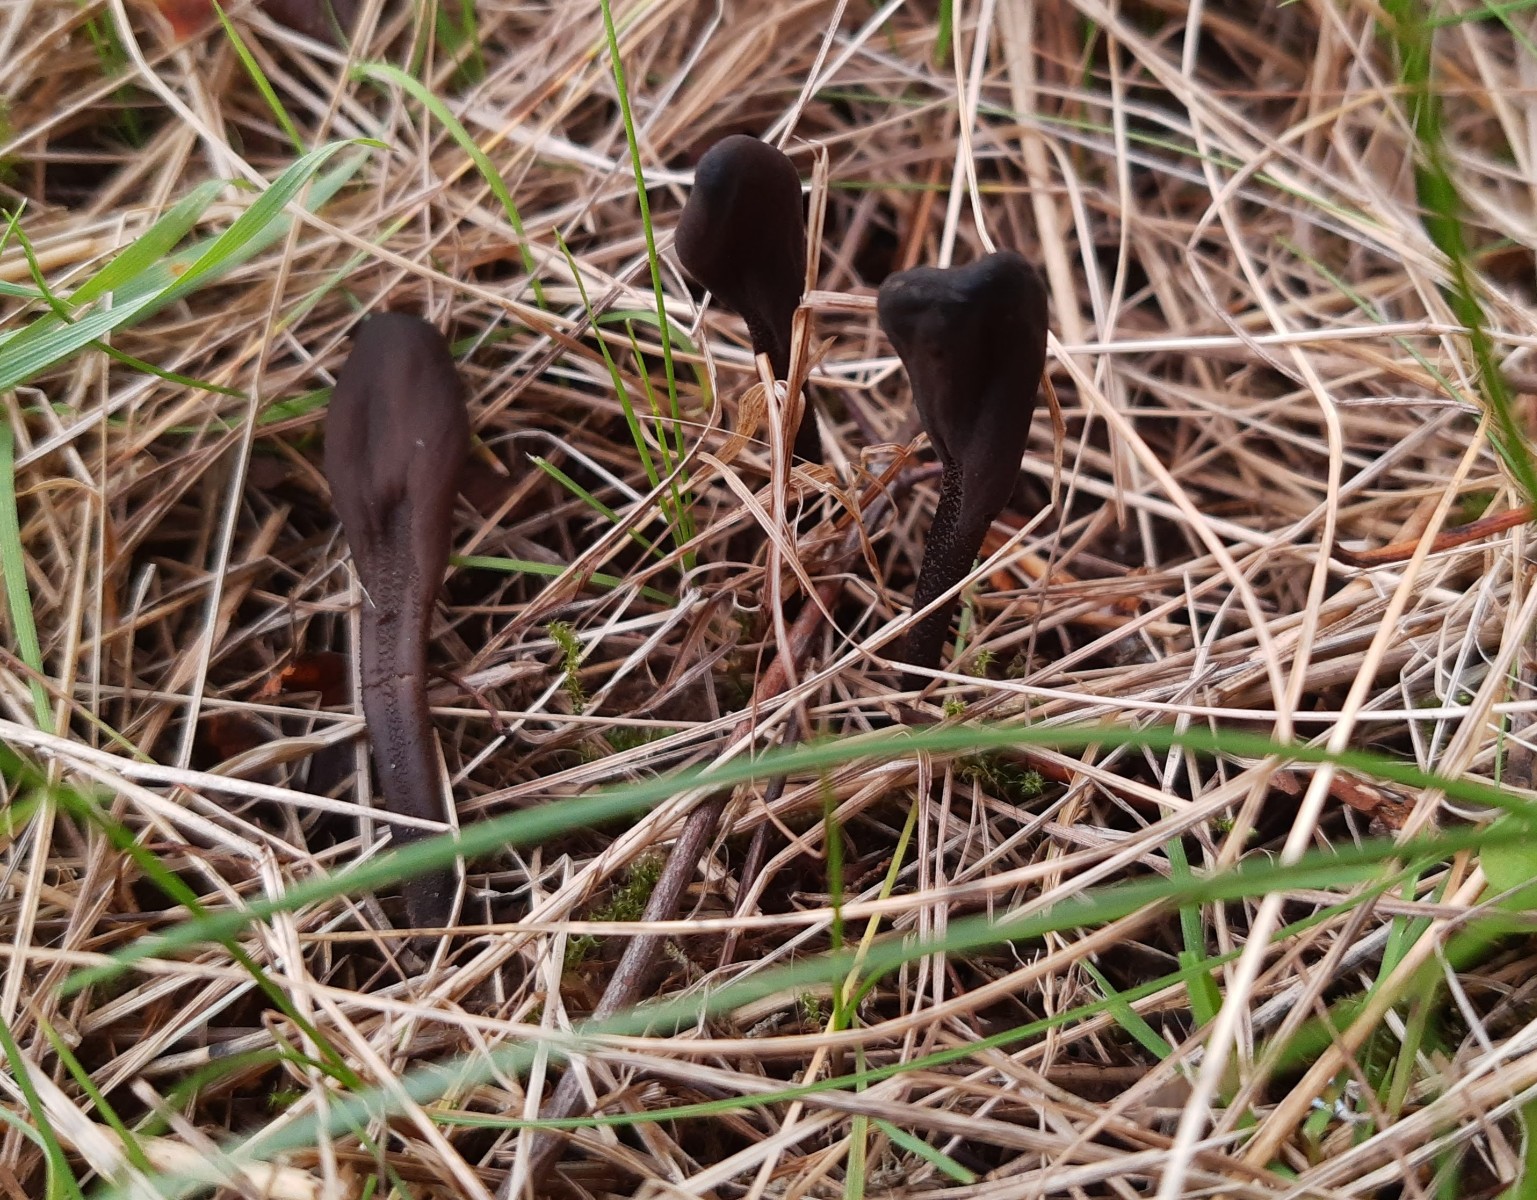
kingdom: Fungi
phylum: Ascomycota
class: Geoglossomycetes
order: Geoglossales
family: Geoglossaceae
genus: Geoglossum
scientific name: Geoglossum fallax
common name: småskællet jordtunge
